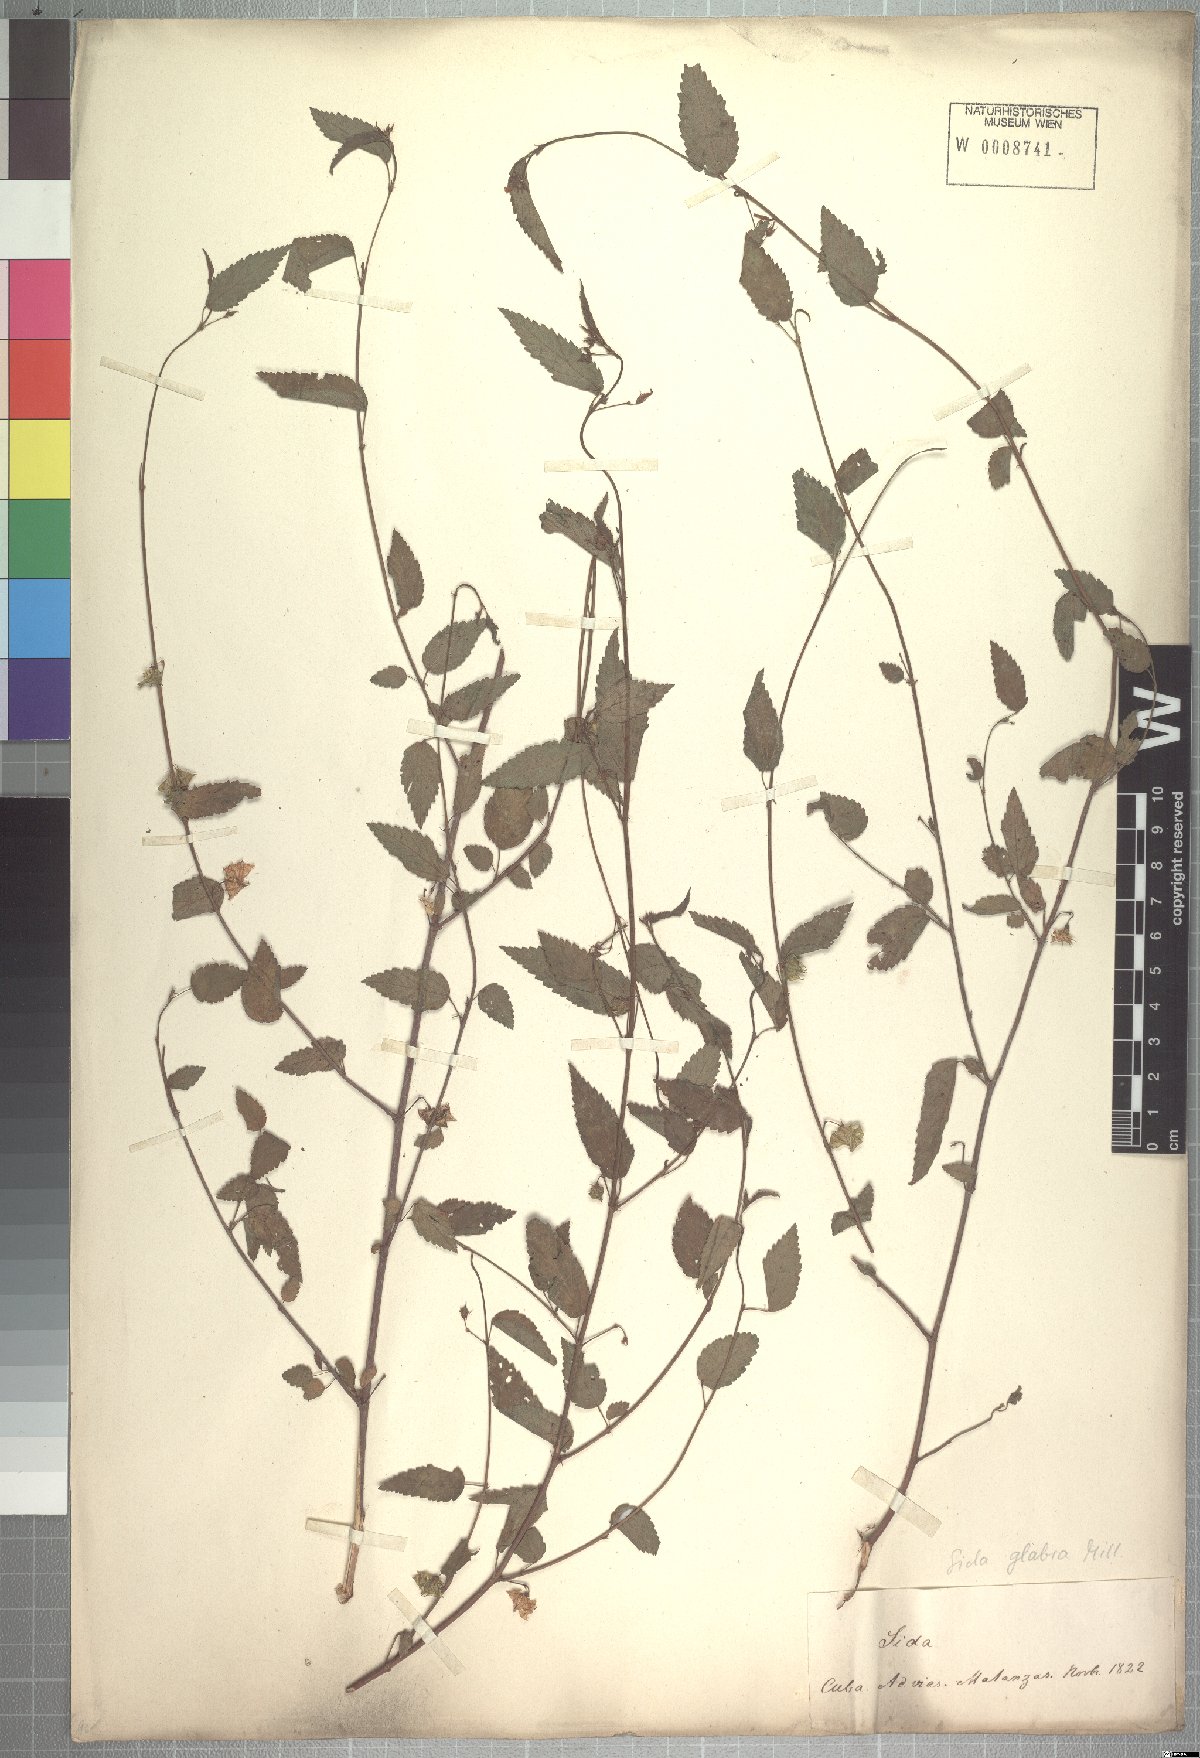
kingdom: Plantae
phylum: Tracheophyta
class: Magnoliopsida
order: Malvales
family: Malvaceae
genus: Sida
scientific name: Sida glabra
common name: Smooth fanpetals
